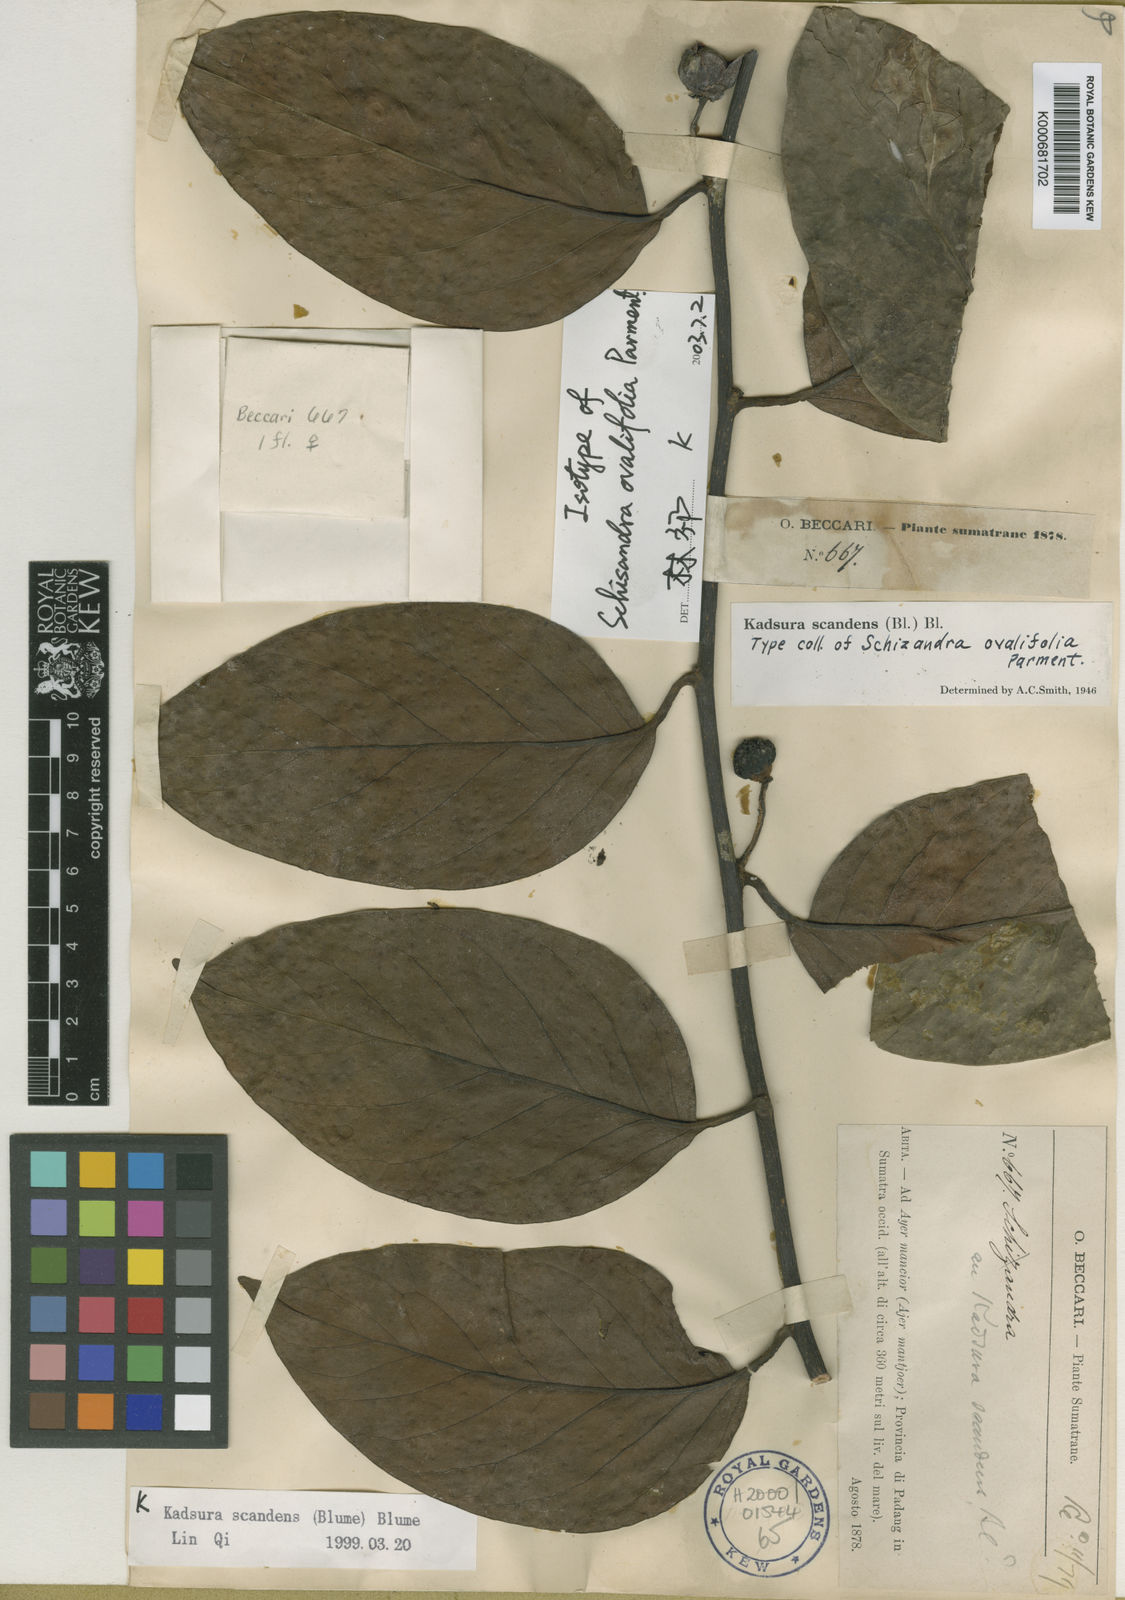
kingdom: Plantae
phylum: Tracheophyta
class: Magnoliopsida
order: Austrobaileyales
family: Schisandraceae
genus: Kadsura
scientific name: Kadsura scandens
